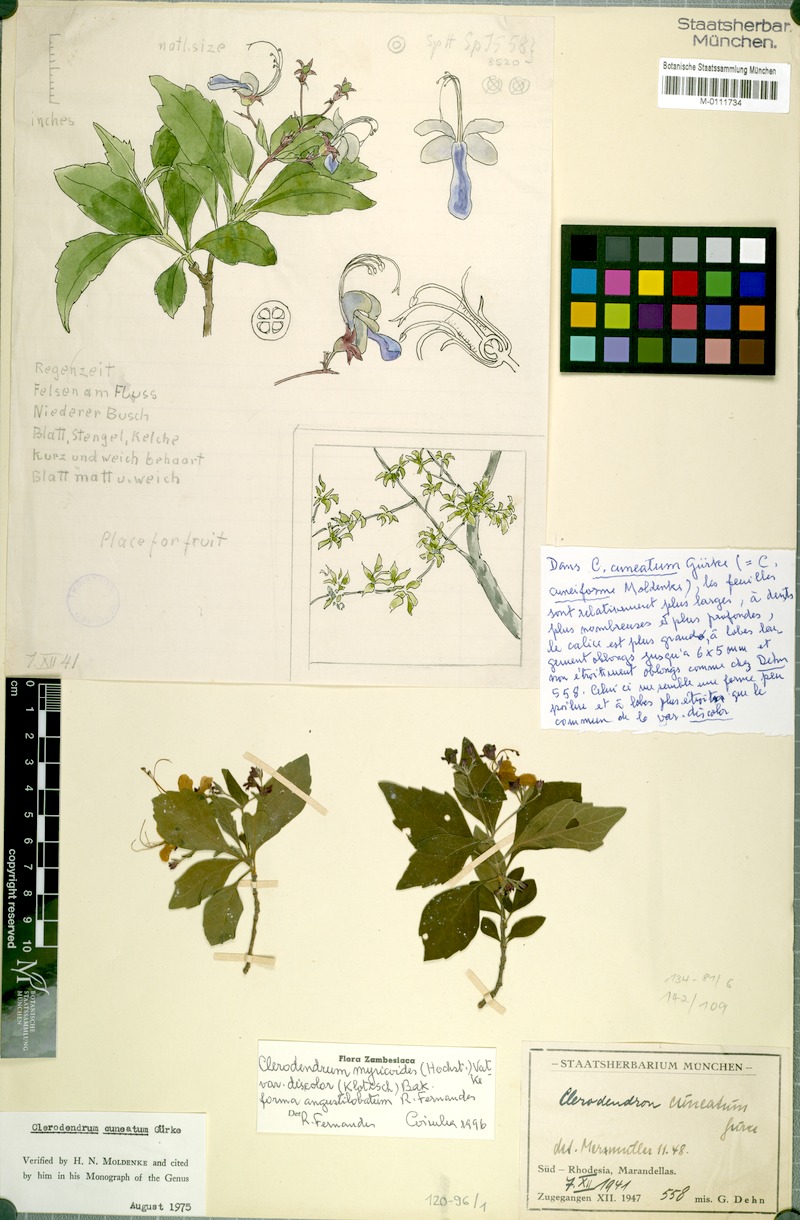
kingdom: Plantae
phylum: Tracheophyta
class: Magnoliopsida
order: Lamiales
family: Lamiaceae
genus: Rotheca
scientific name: Rotheca myricoides
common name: Cats-whiskers
